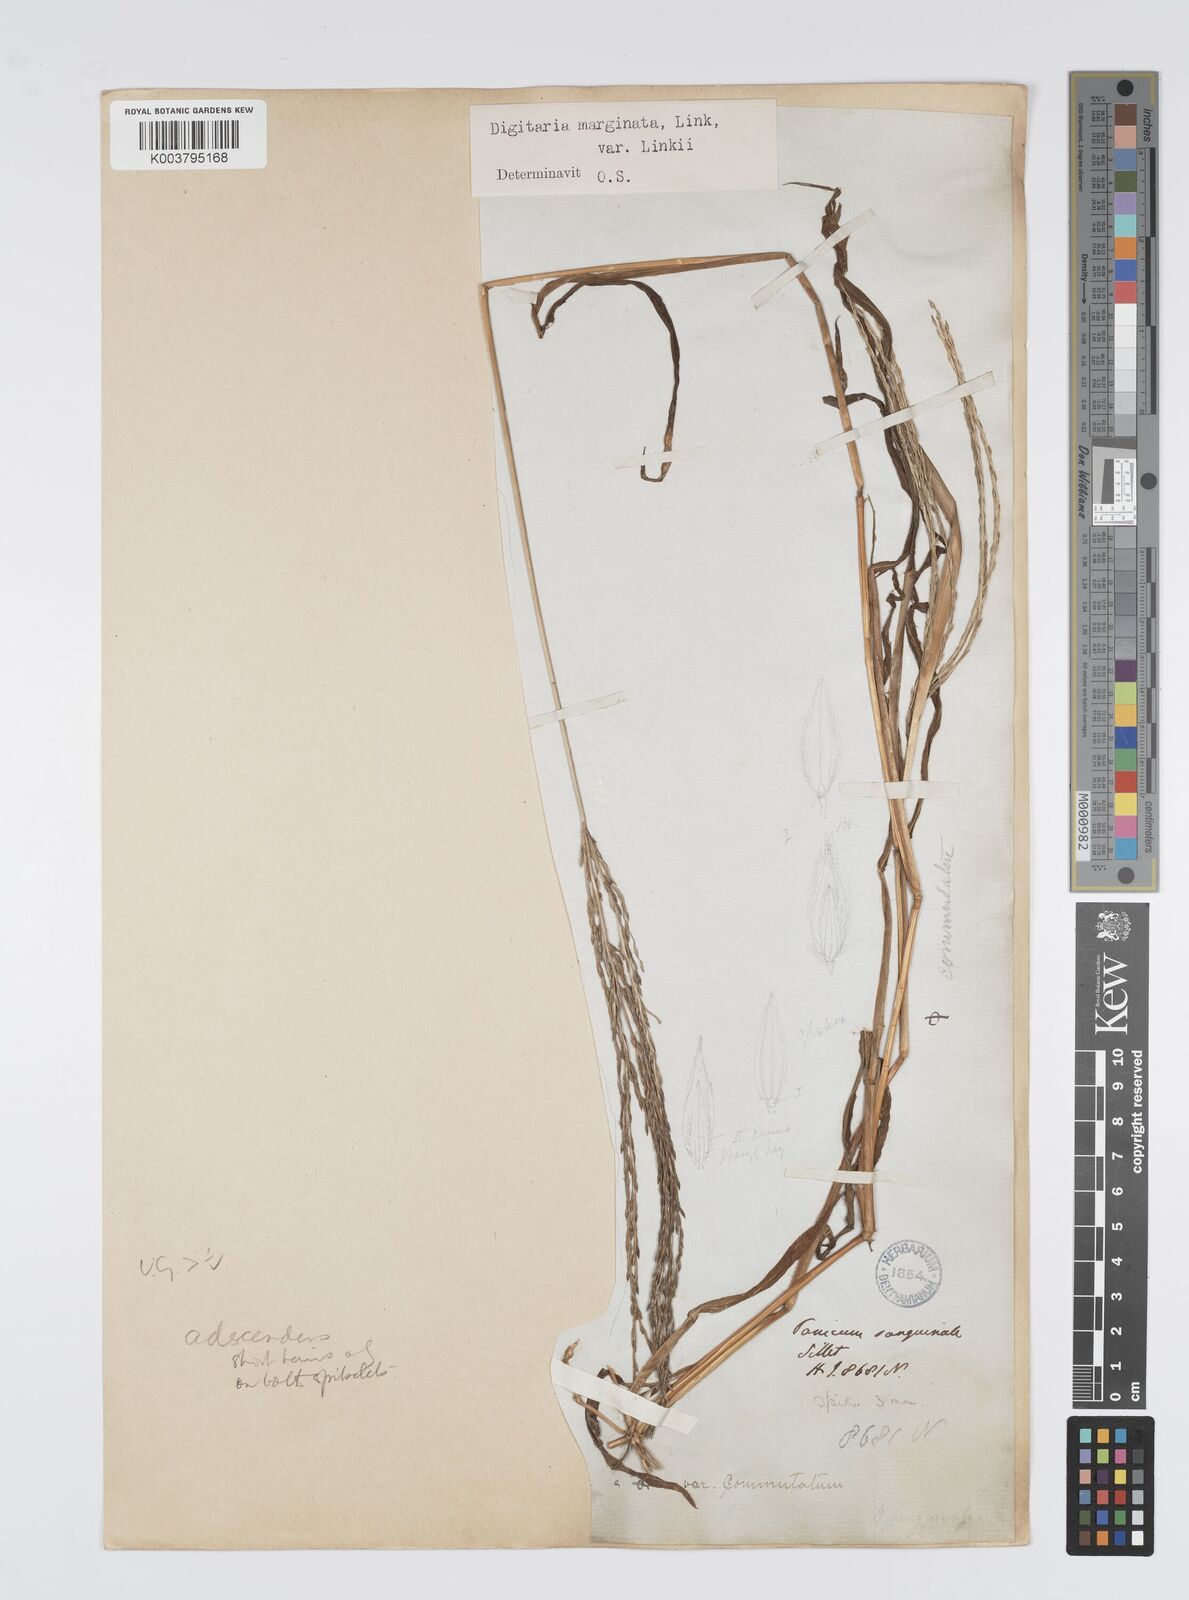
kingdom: Plantae
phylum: Tracheophyta
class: Liliopsida
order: Poales
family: Poaceae
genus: Digitaria
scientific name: Digitaria ciliaris
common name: Tropical finger-grass
